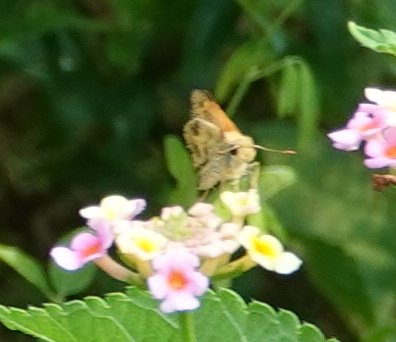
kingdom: Animalia
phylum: Arthropoda
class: Insecta
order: Lepidoptera
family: Hesperiidae
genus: Polites
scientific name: Polites vibex
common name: Whirlabout
